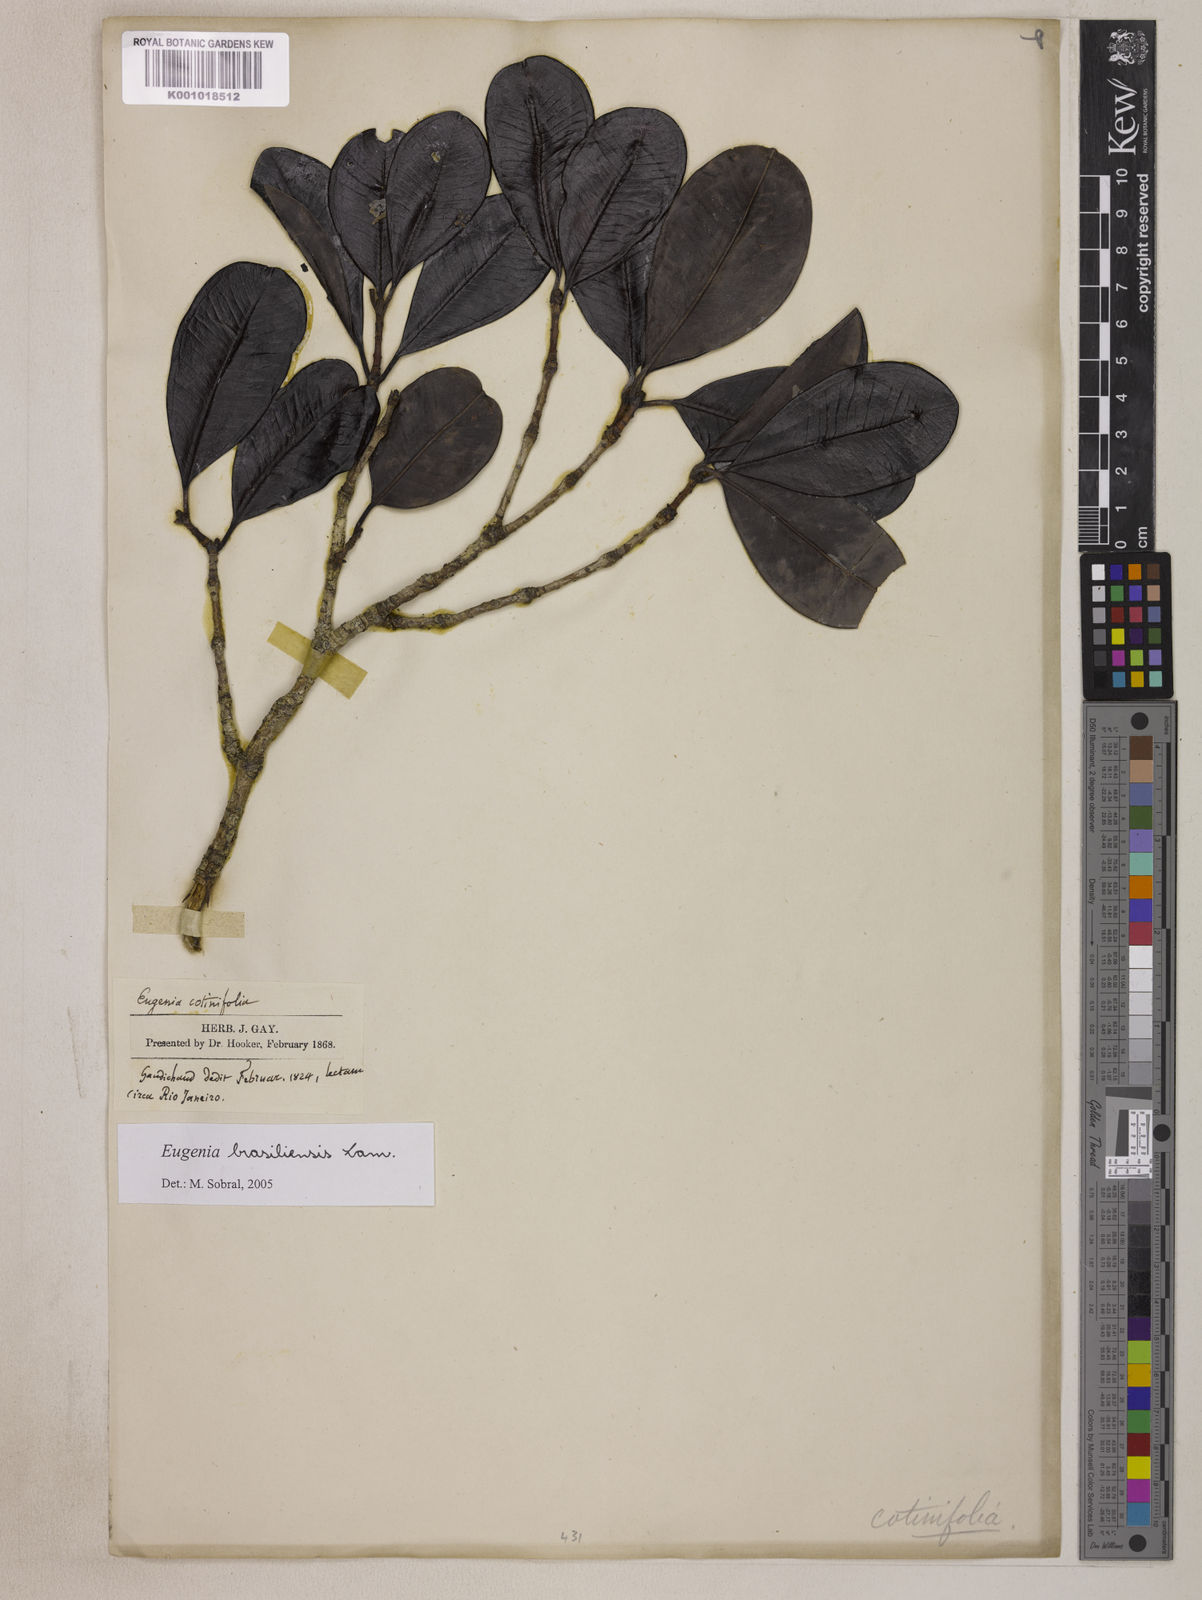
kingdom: Plantae
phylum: Tracheophyta
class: Magnoliopsida
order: Myrtales
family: Myrtaceae
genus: Eugenia
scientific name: Eugenia brasiliensis
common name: Grumichama
